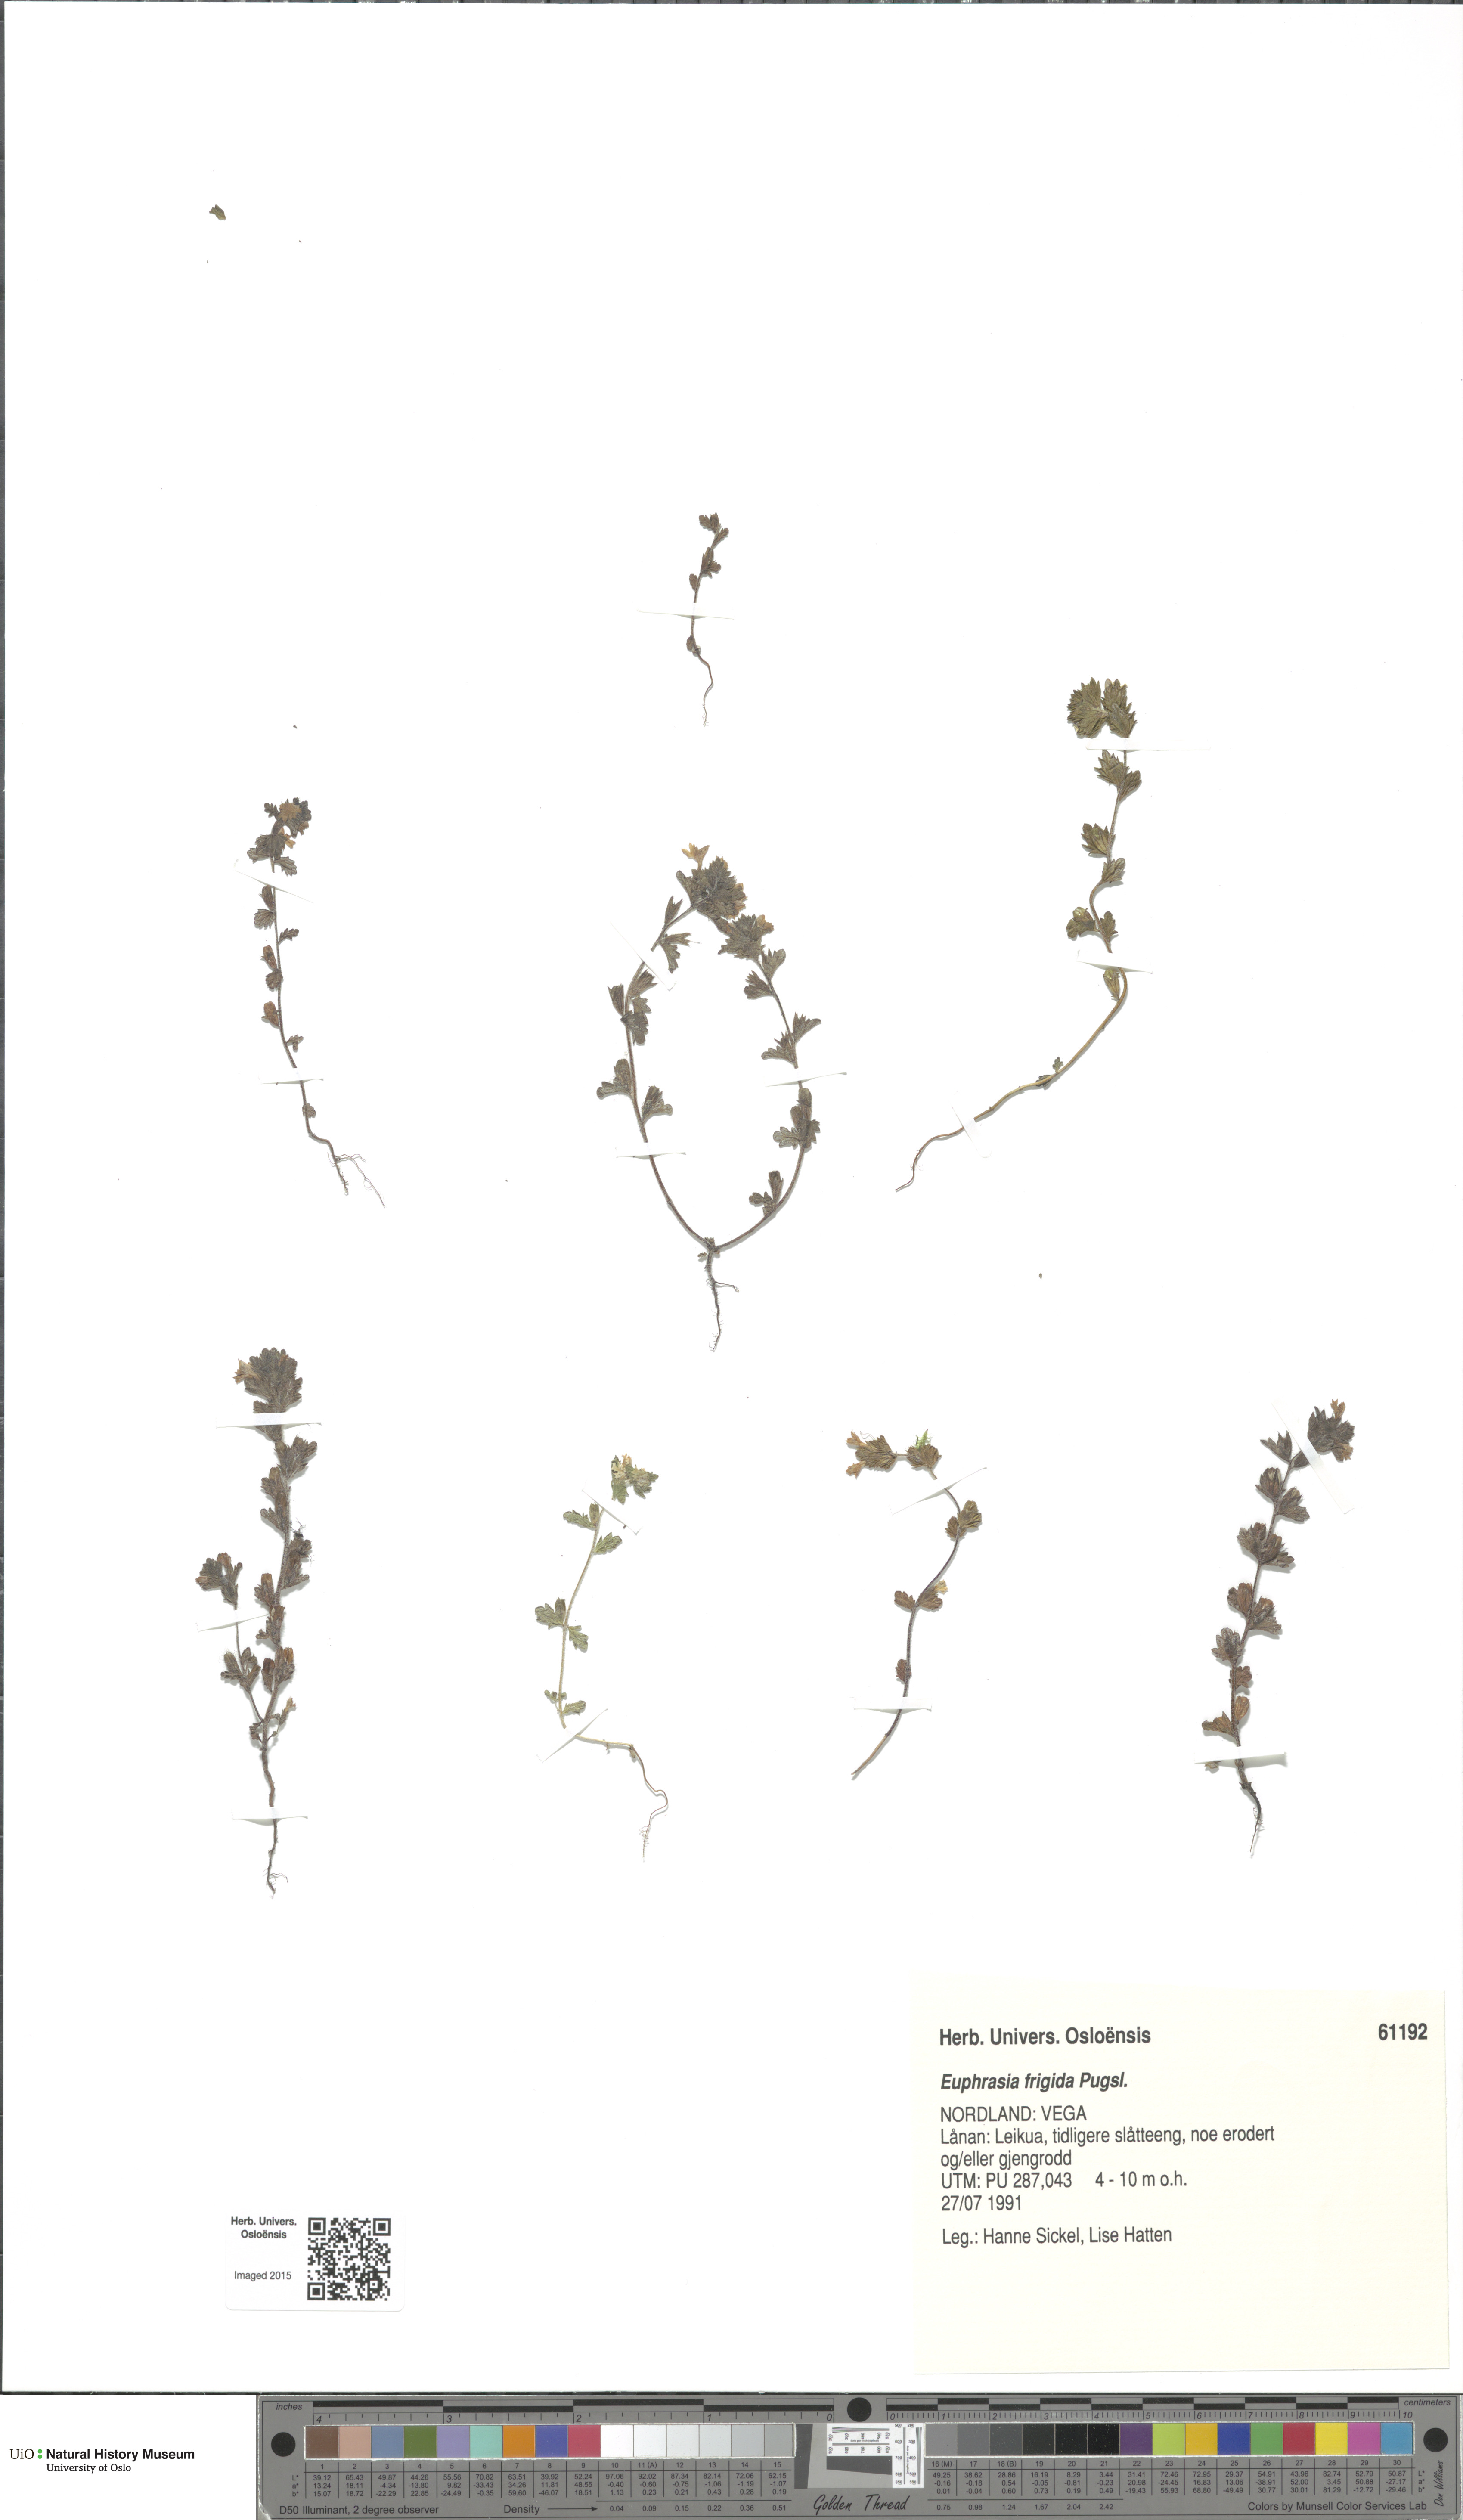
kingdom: Plantae
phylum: Tracheophyta
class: Magnoliopsida
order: Lamiales
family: Orobanchaceae
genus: Euphrasia
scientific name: Euphrasia frigida
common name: An eyebright
